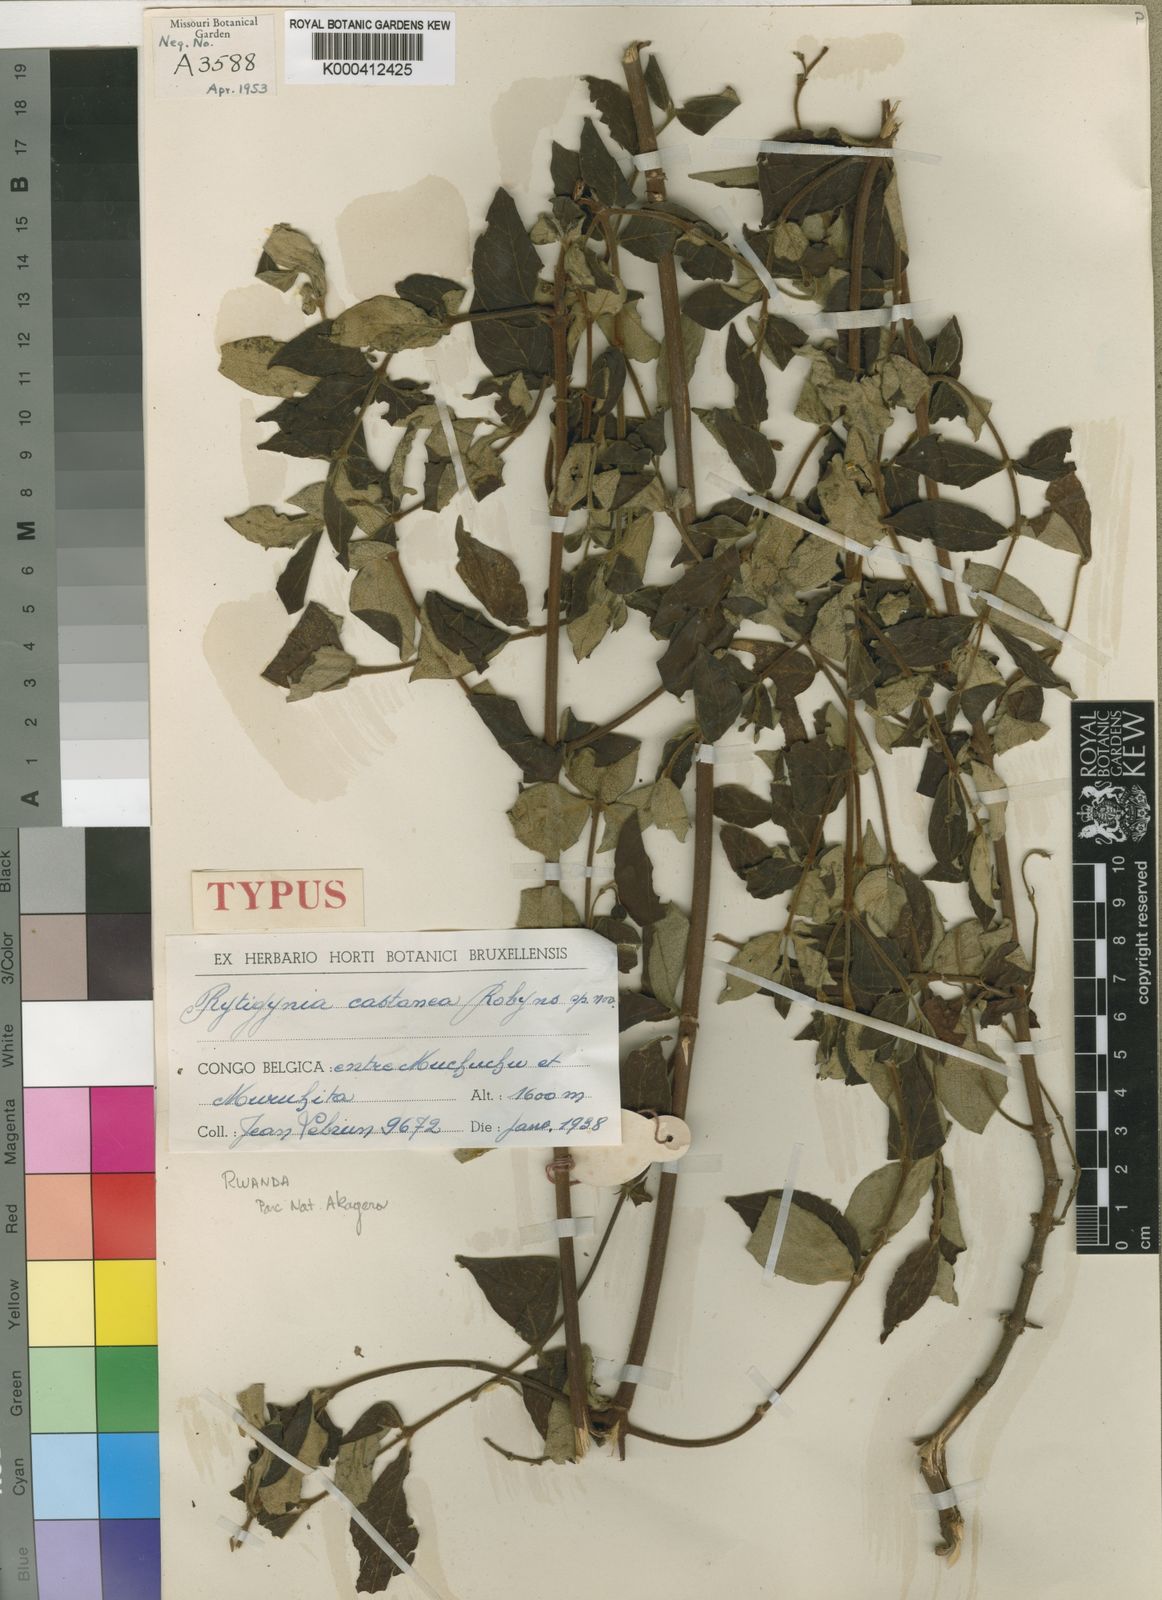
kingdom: Plantae
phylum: Tracheophyta
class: Magnoliopsida
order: Gentianales
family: Rubiaceae
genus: Rytigynia
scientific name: Rytigynia monantha
